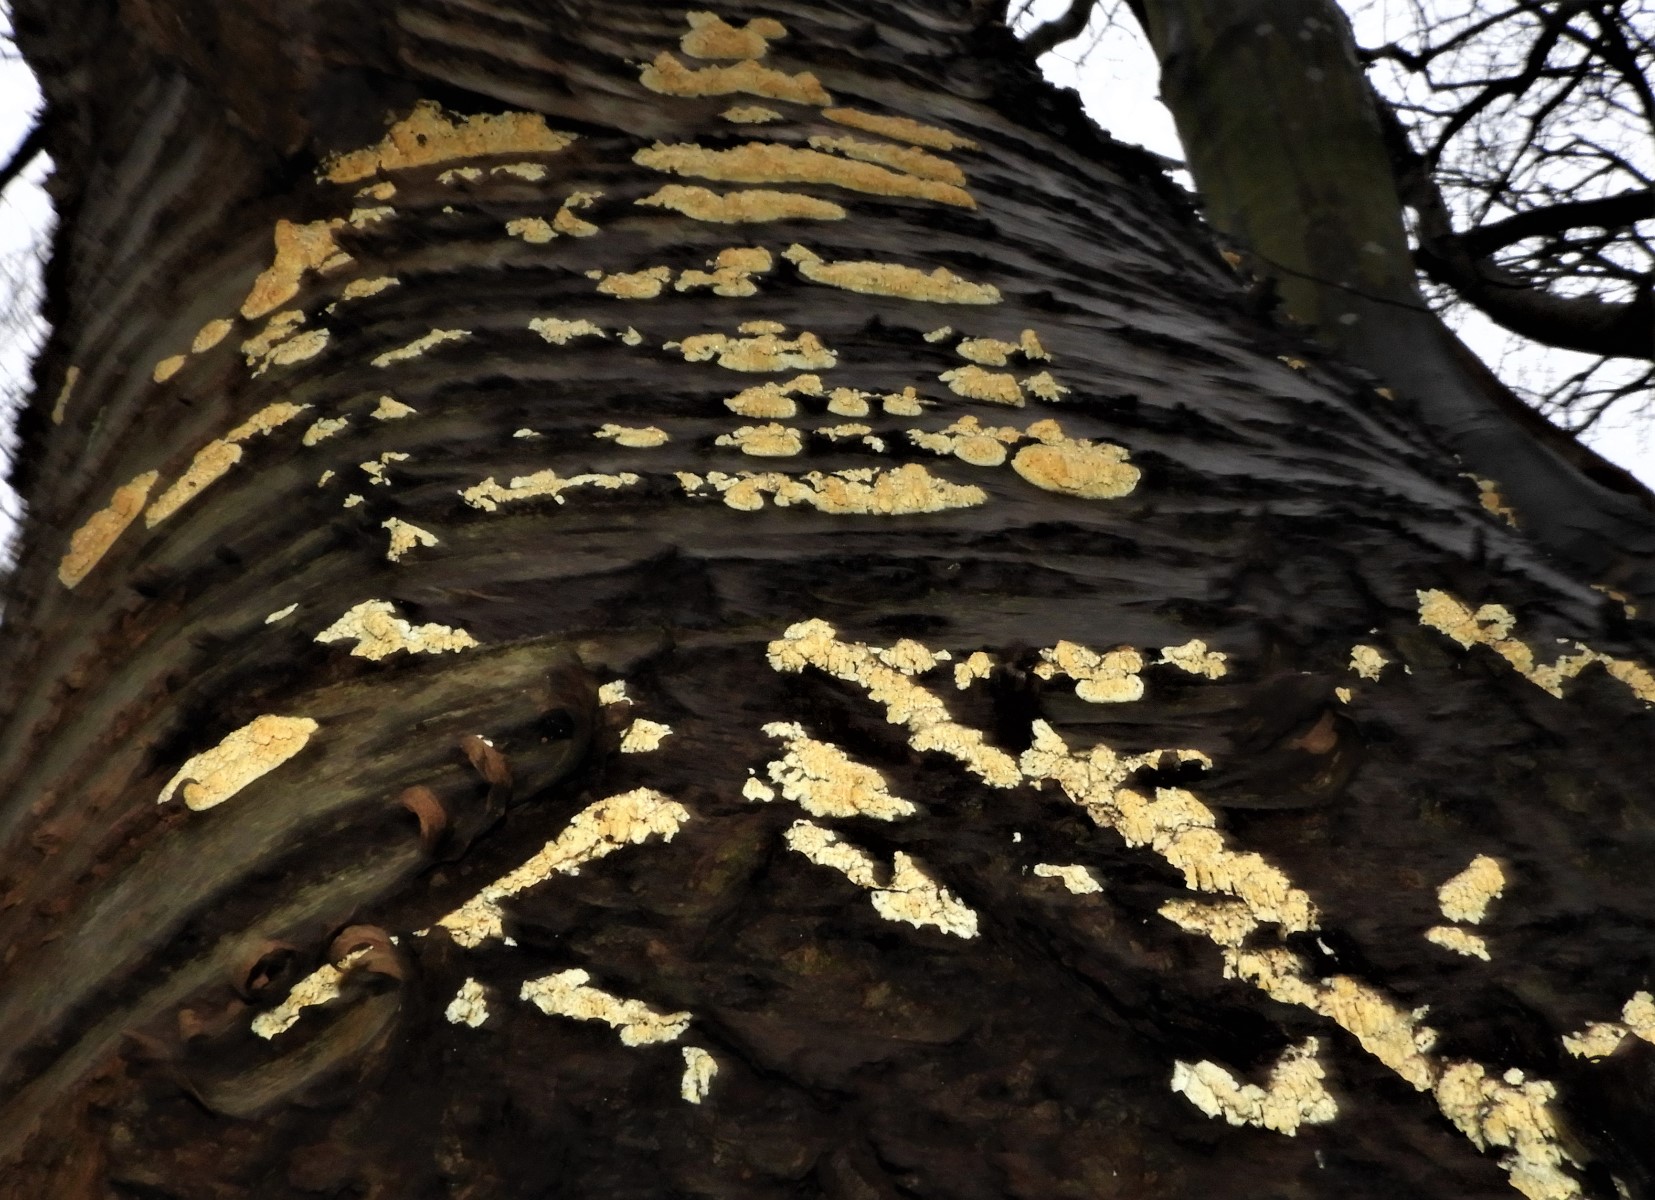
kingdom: Fungi
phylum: Basidiomycota
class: Agaricomycetes
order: Hymenochaetales
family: Schizoporaceae
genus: Xylodon
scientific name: Xylodon radula
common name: grovtandet kalkskind
